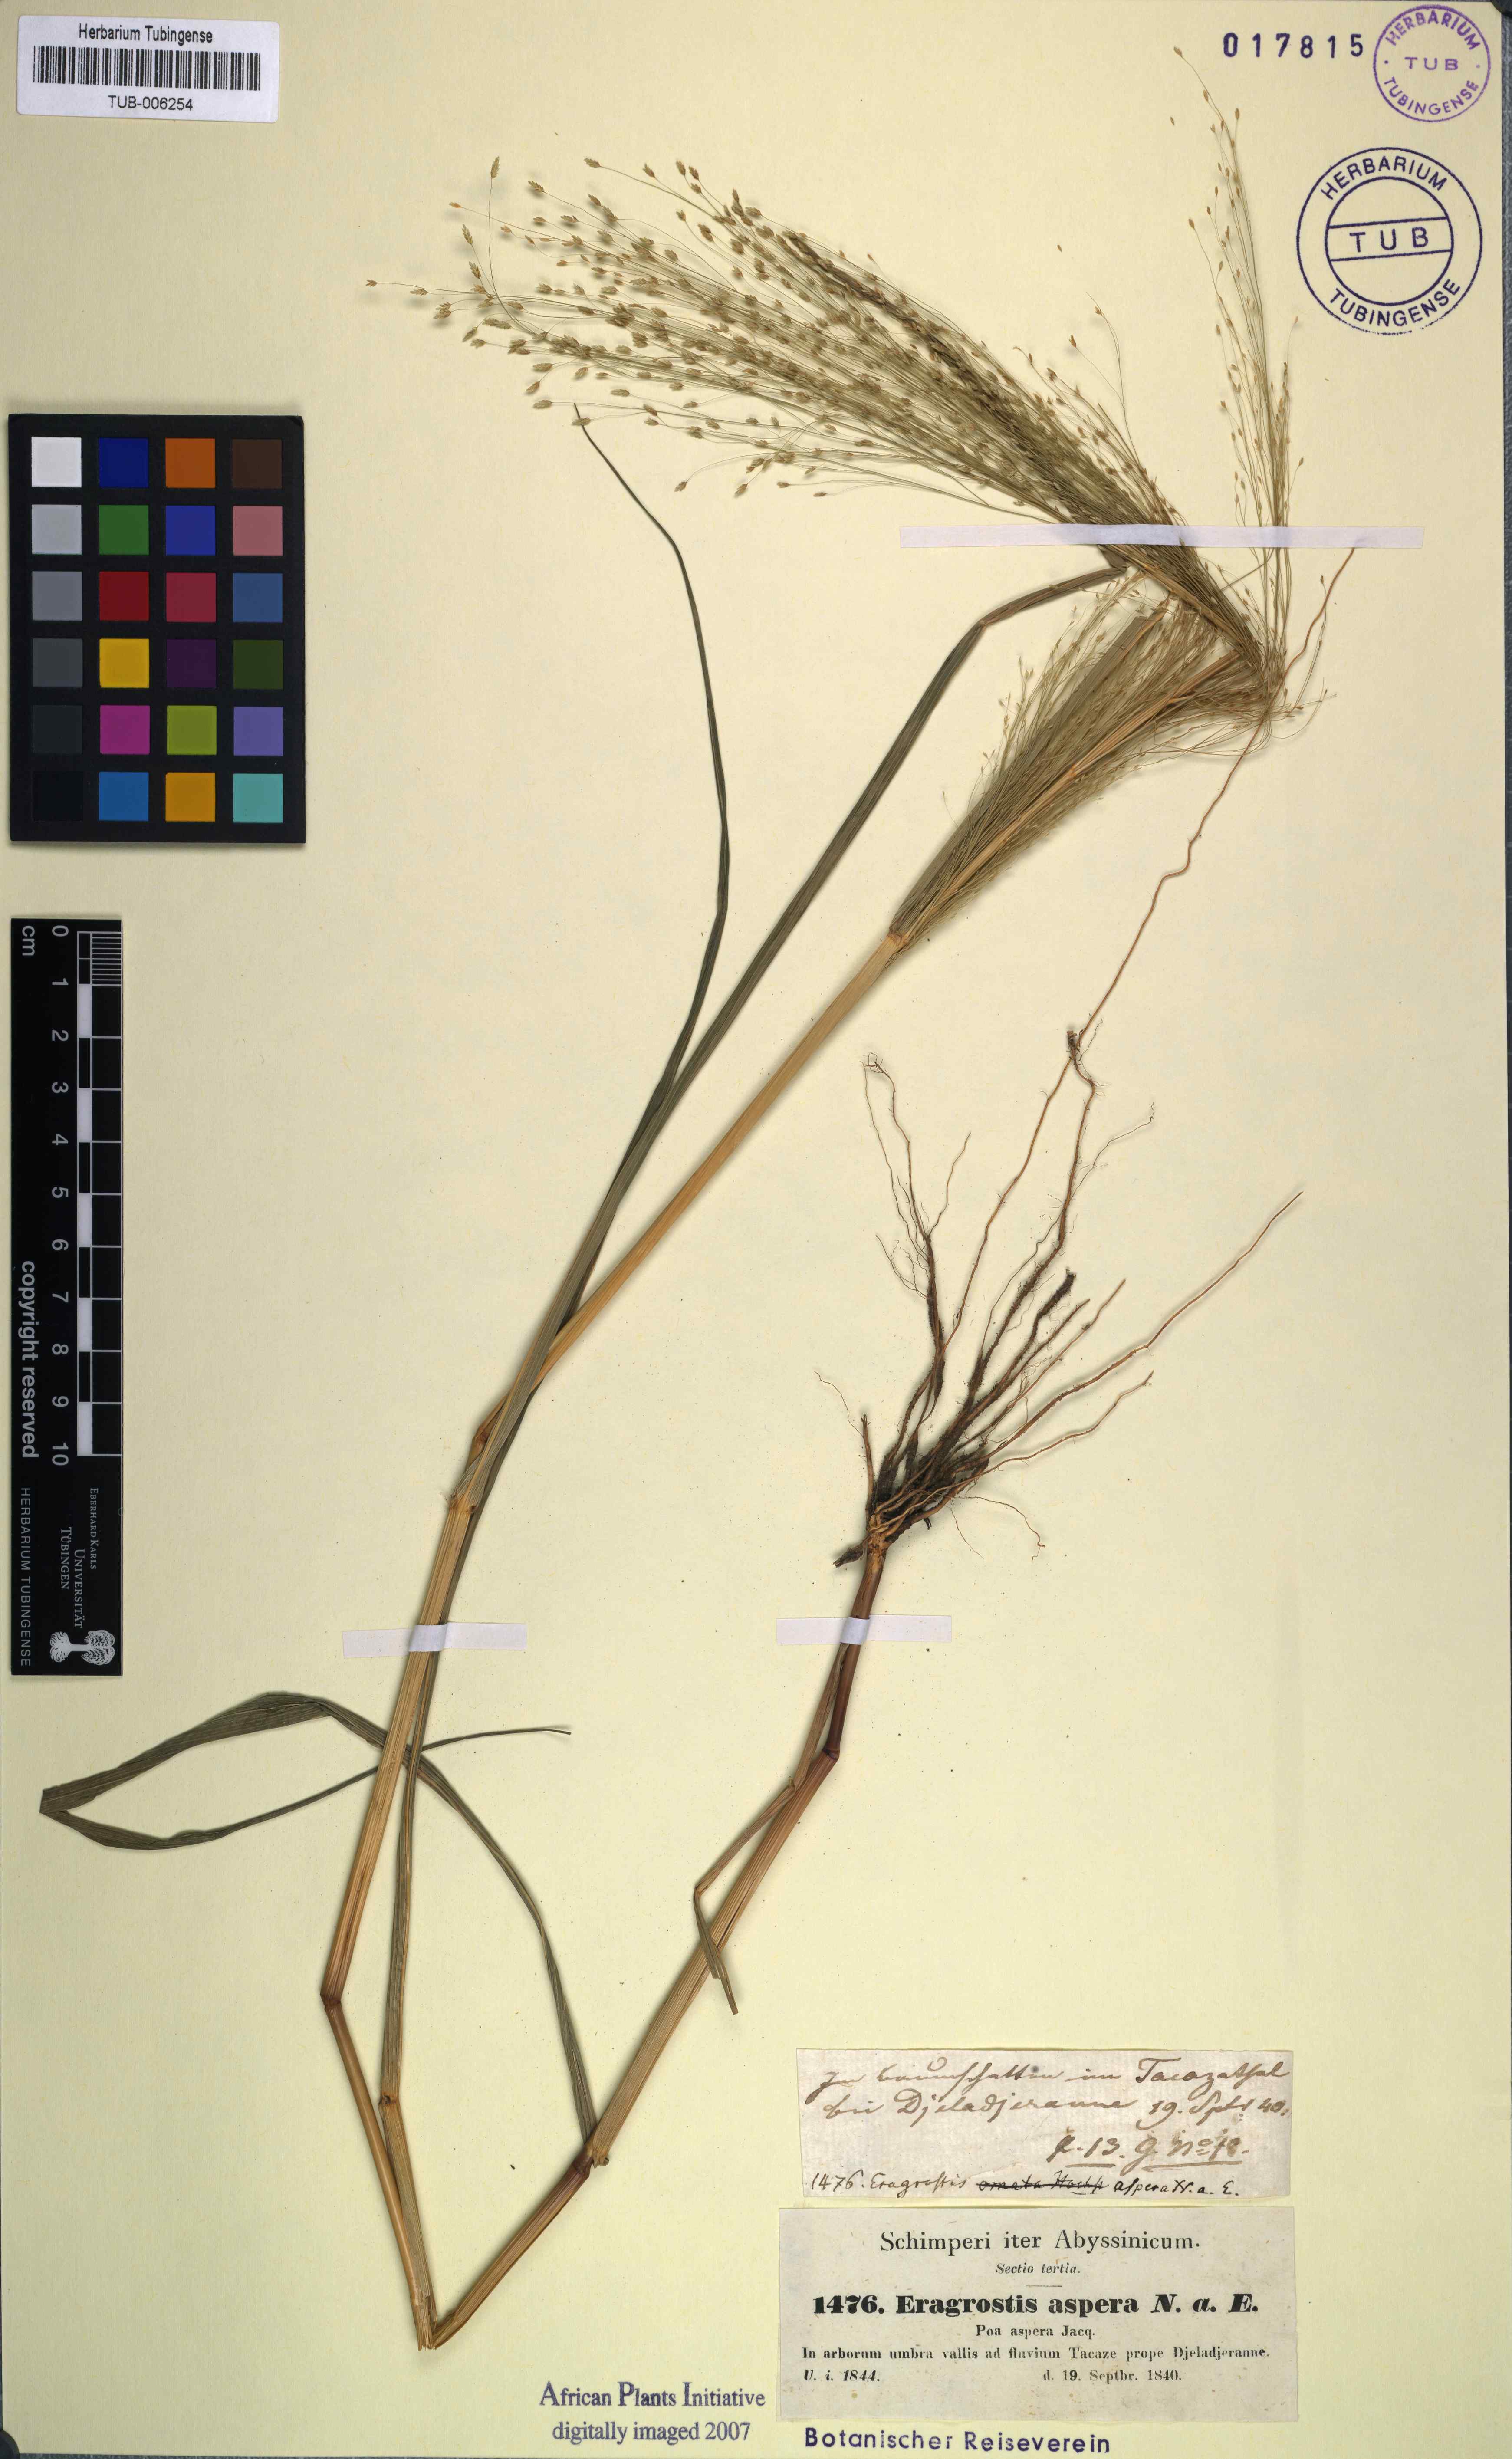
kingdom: Plantae
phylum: Tracheophyta
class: Liliopsida
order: Poales
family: Poaceae
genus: Eragrostis
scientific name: Eragrostis aspera
